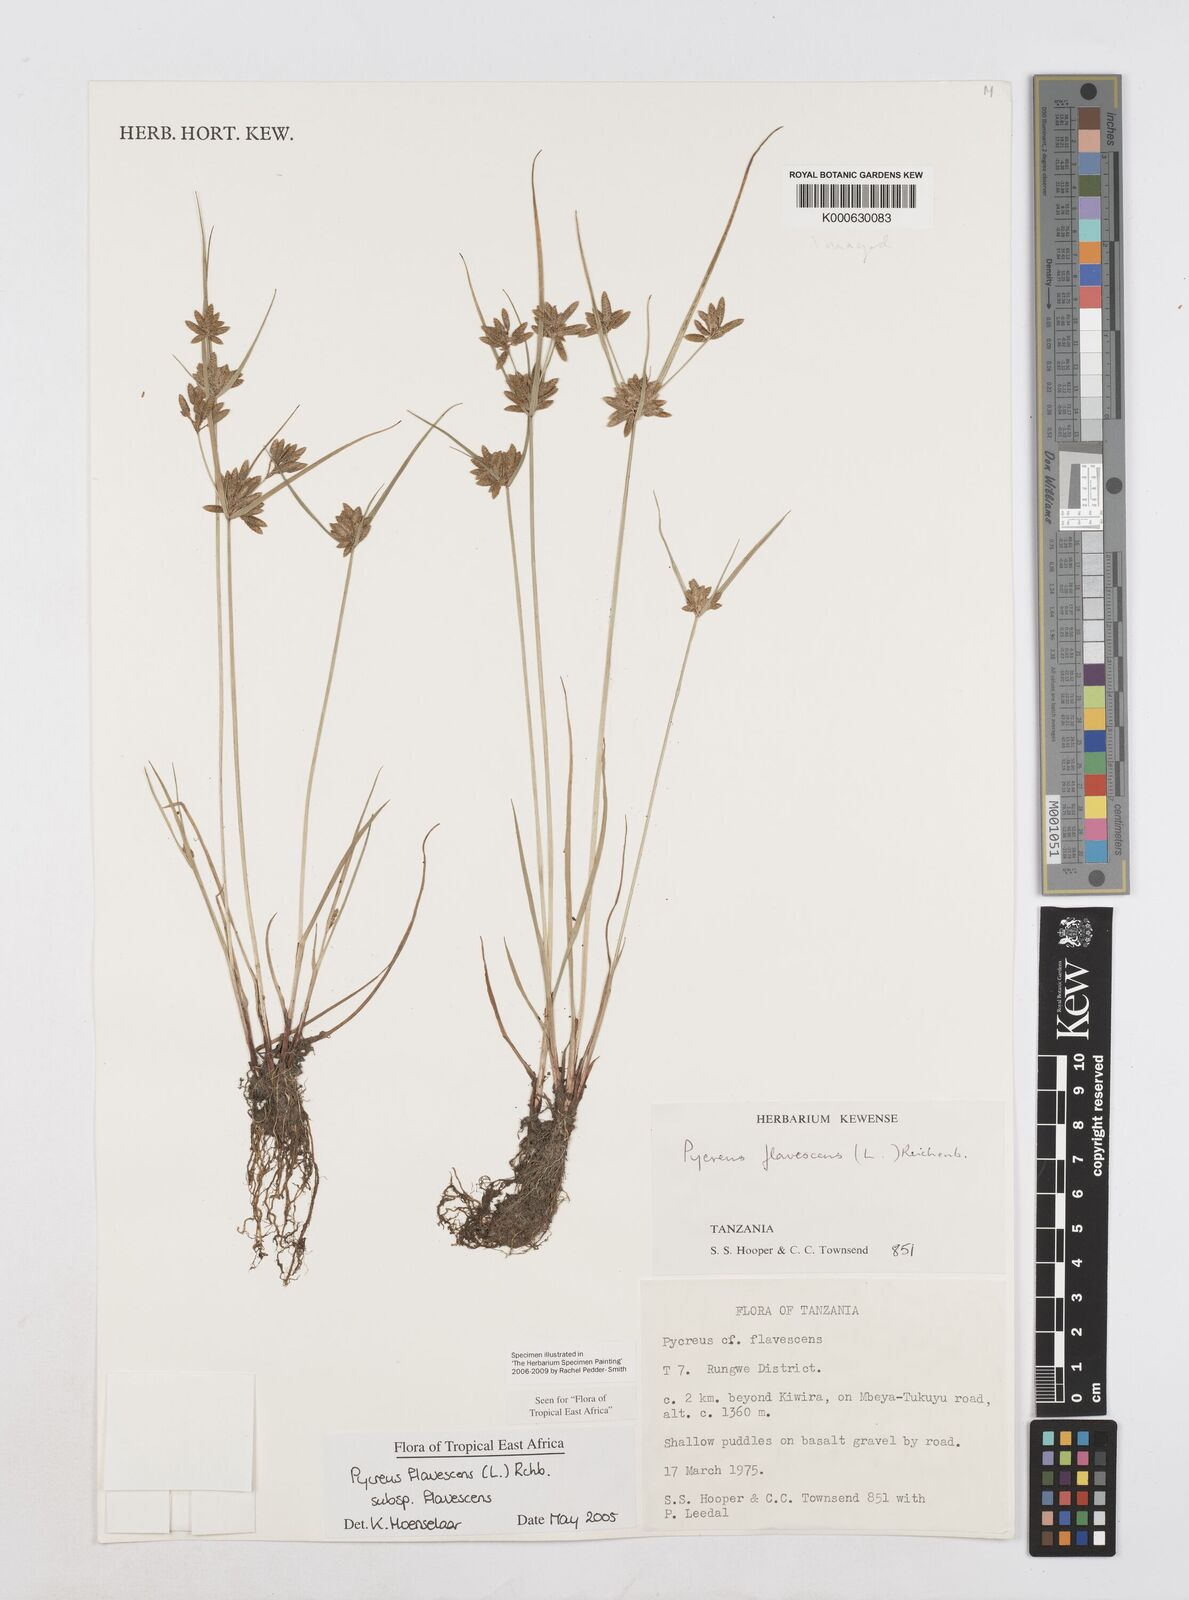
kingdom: Plantae
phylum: Tracheophyta
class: Liliopsida
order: Poales
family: Cyperaceae
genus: Cyperus
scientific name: Cyperus flavescens
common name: Yellow galingale
